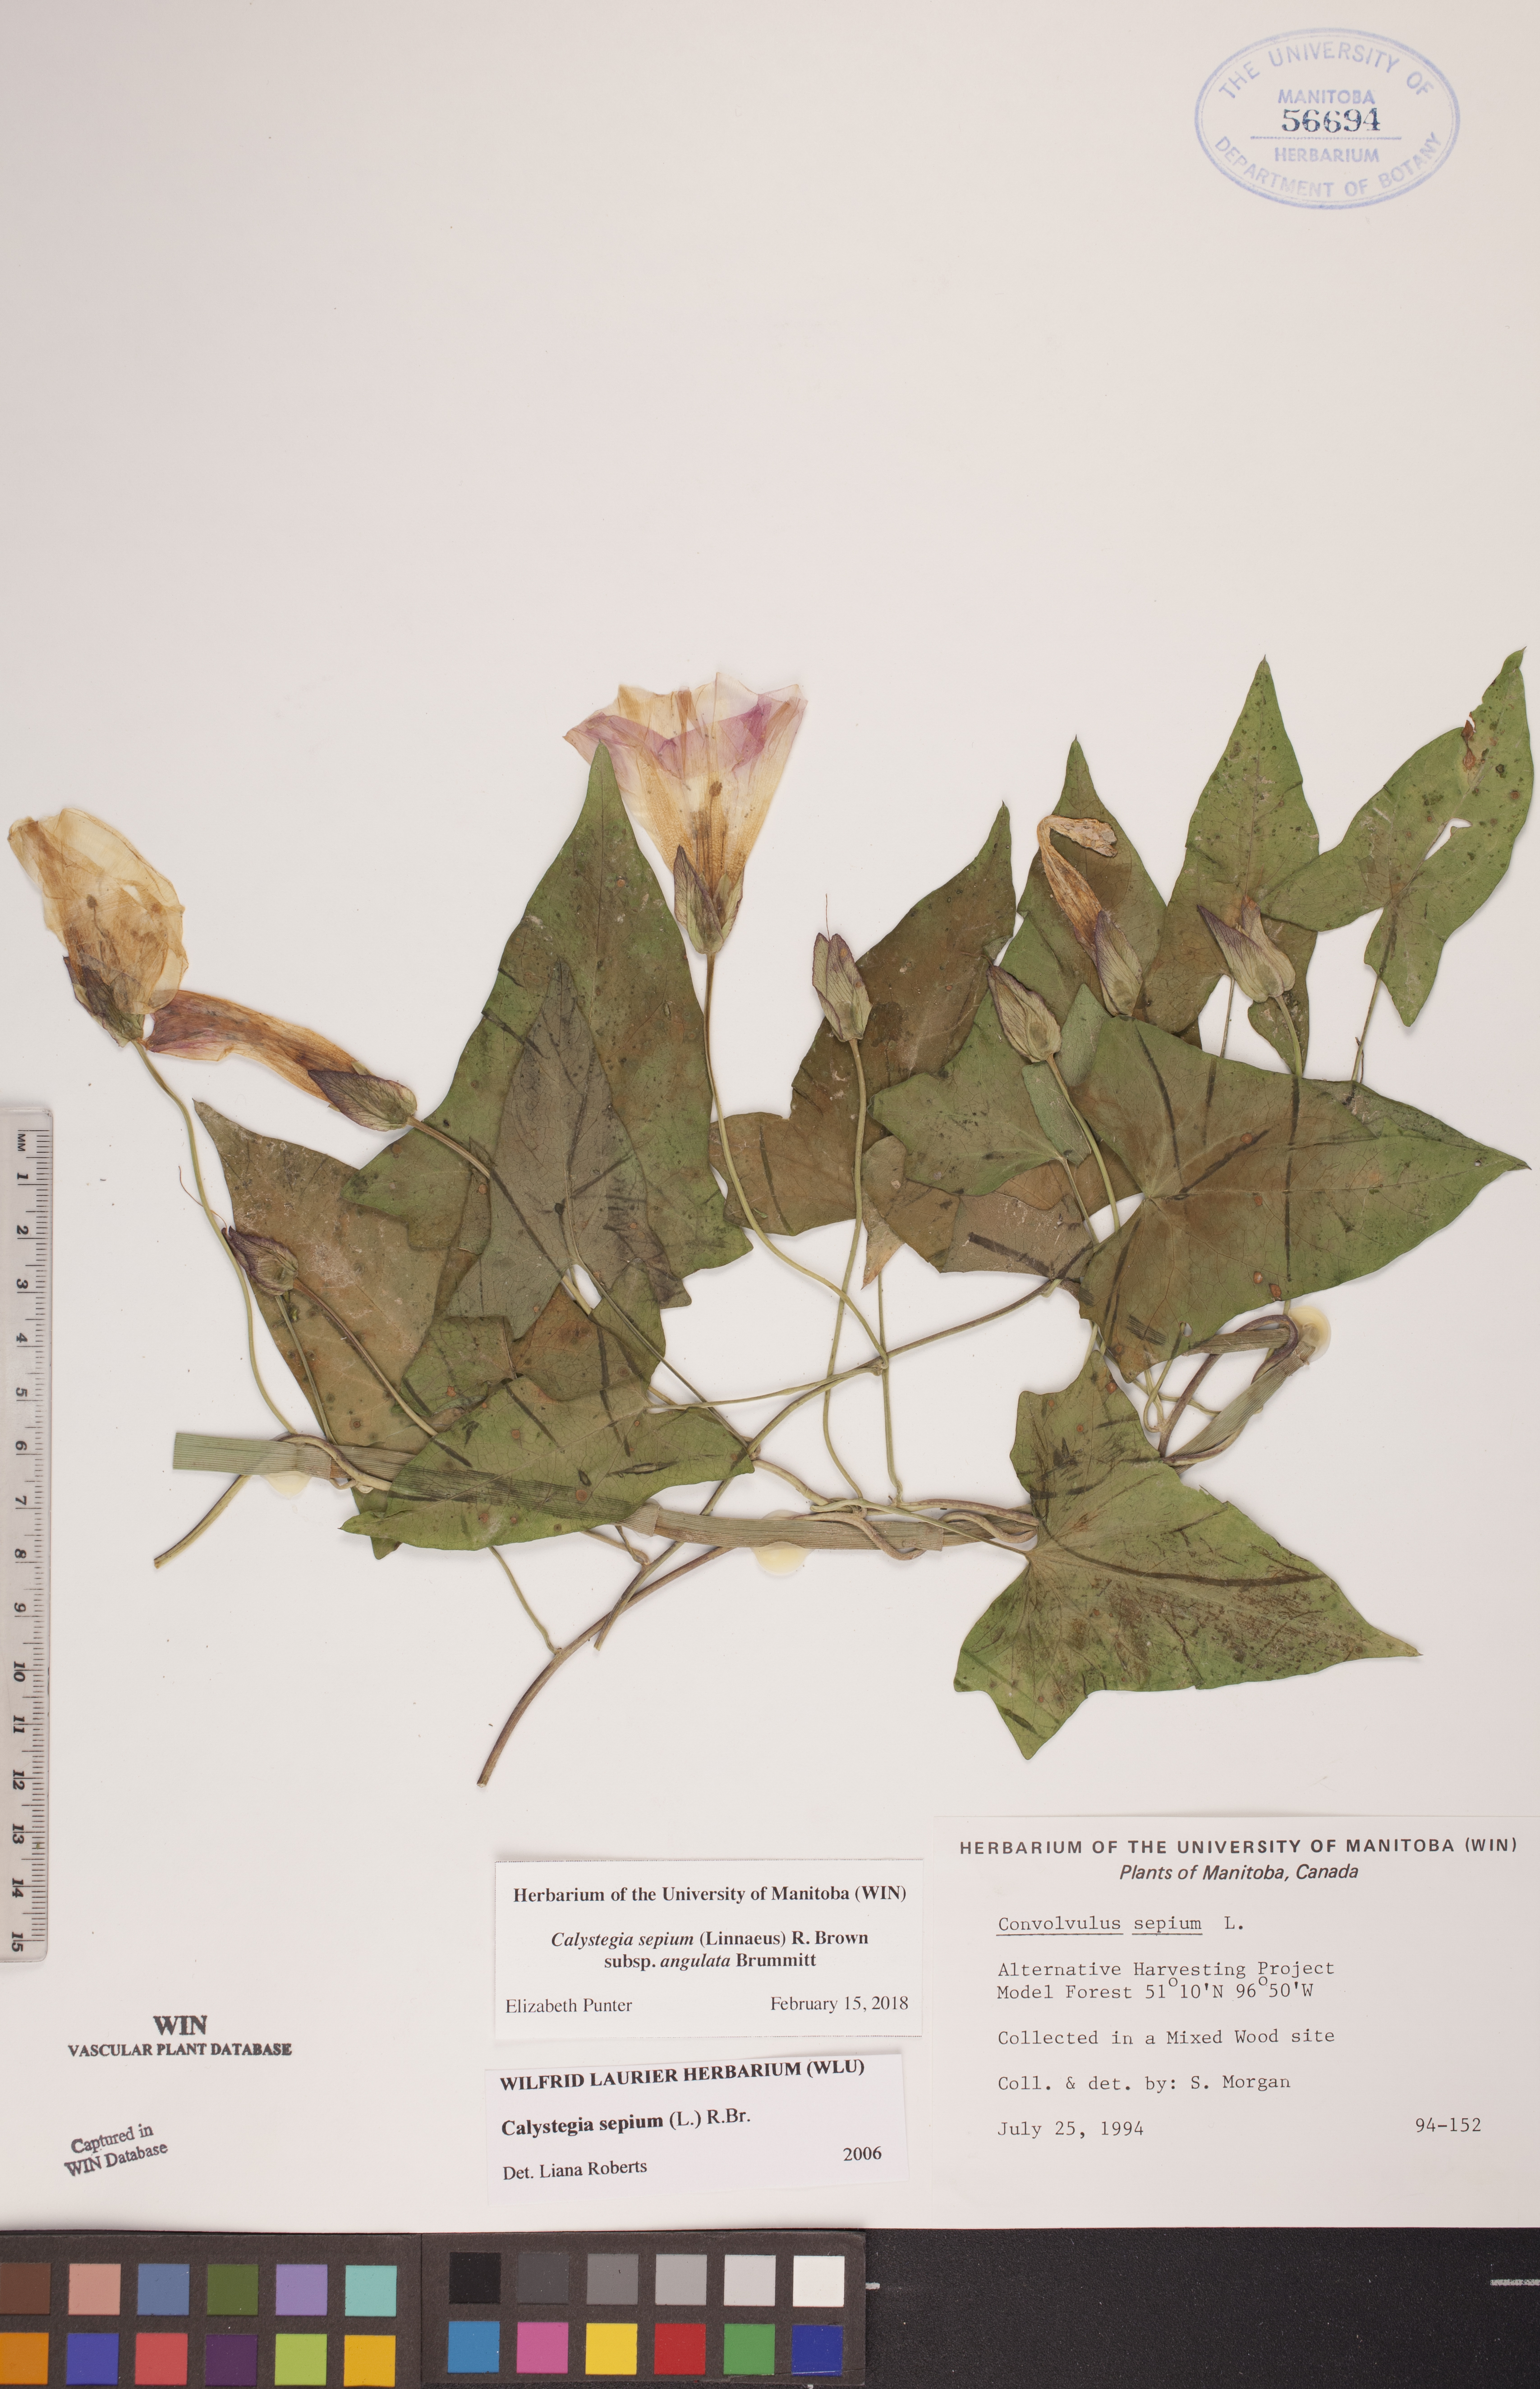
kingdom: Plantae
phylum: Tracheophyta
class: Magnoliopsida
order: Solanales
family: Convolvulaceae
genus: Calystegia
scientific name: Calystegia sepium
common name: Hedge bindweed
